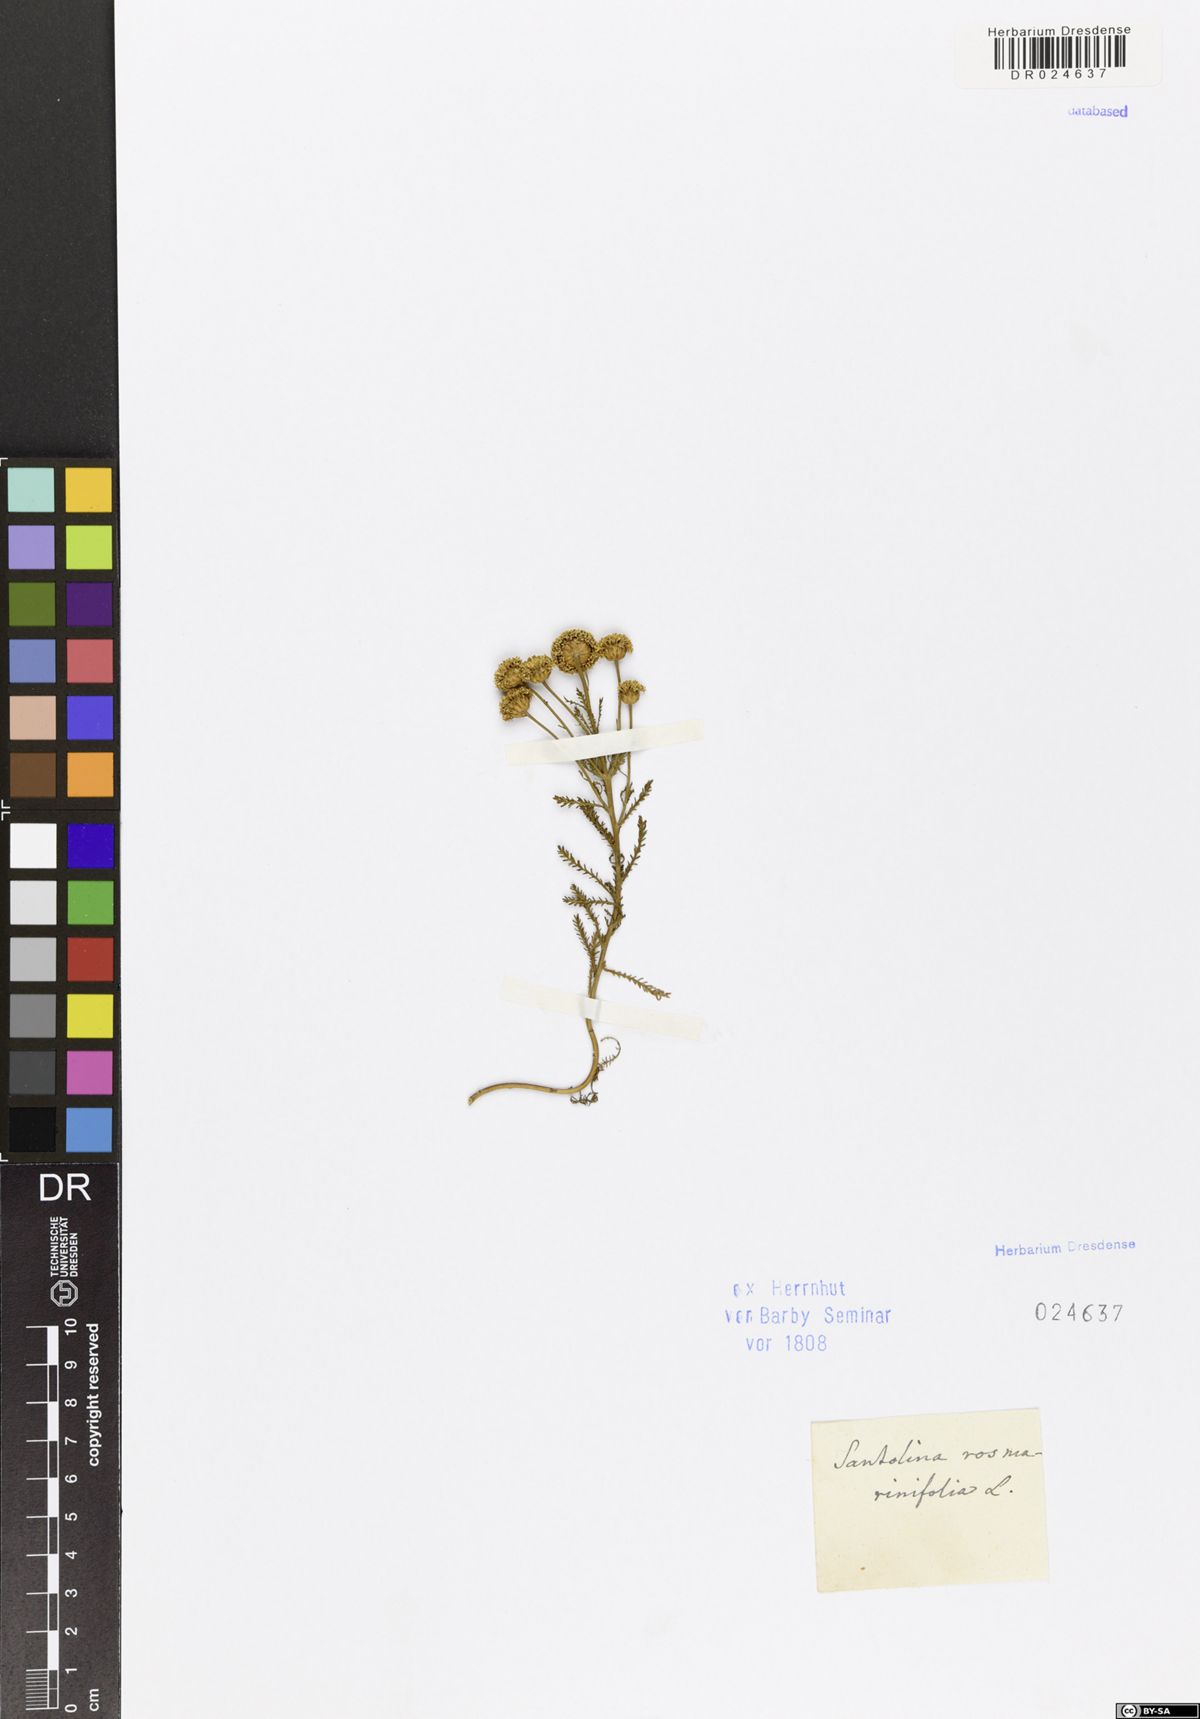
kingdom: Plantae
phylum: Tracheophyta
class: Magnoliopsida
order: Asterales
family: Asteraceae
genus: Santolina
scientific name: Santolina rosmarinifolia
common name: Holy-flax
